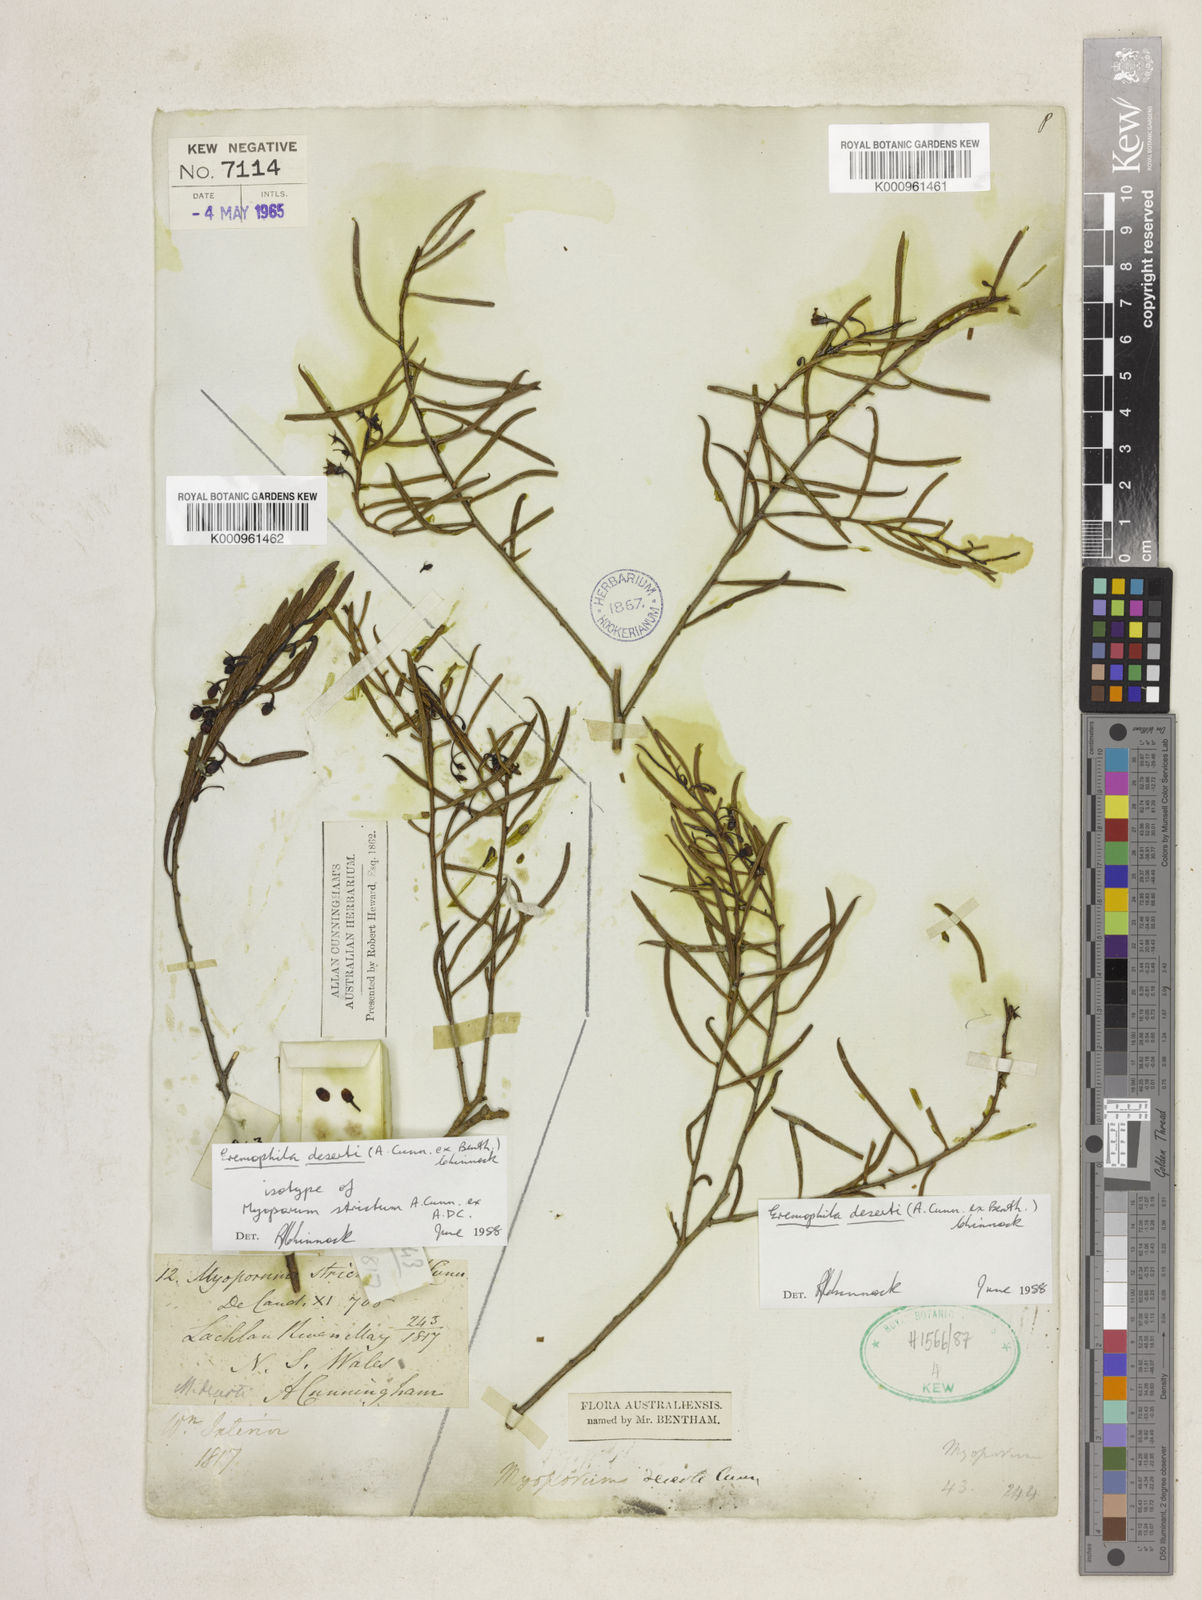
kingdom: Plantae
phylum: Tracheophyta
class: Magnoliopsida
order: Lamiales
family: Scrophulariaceae
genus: Eremophila
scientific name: Eremophila deserti
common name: Ellangowan-poisonbush
